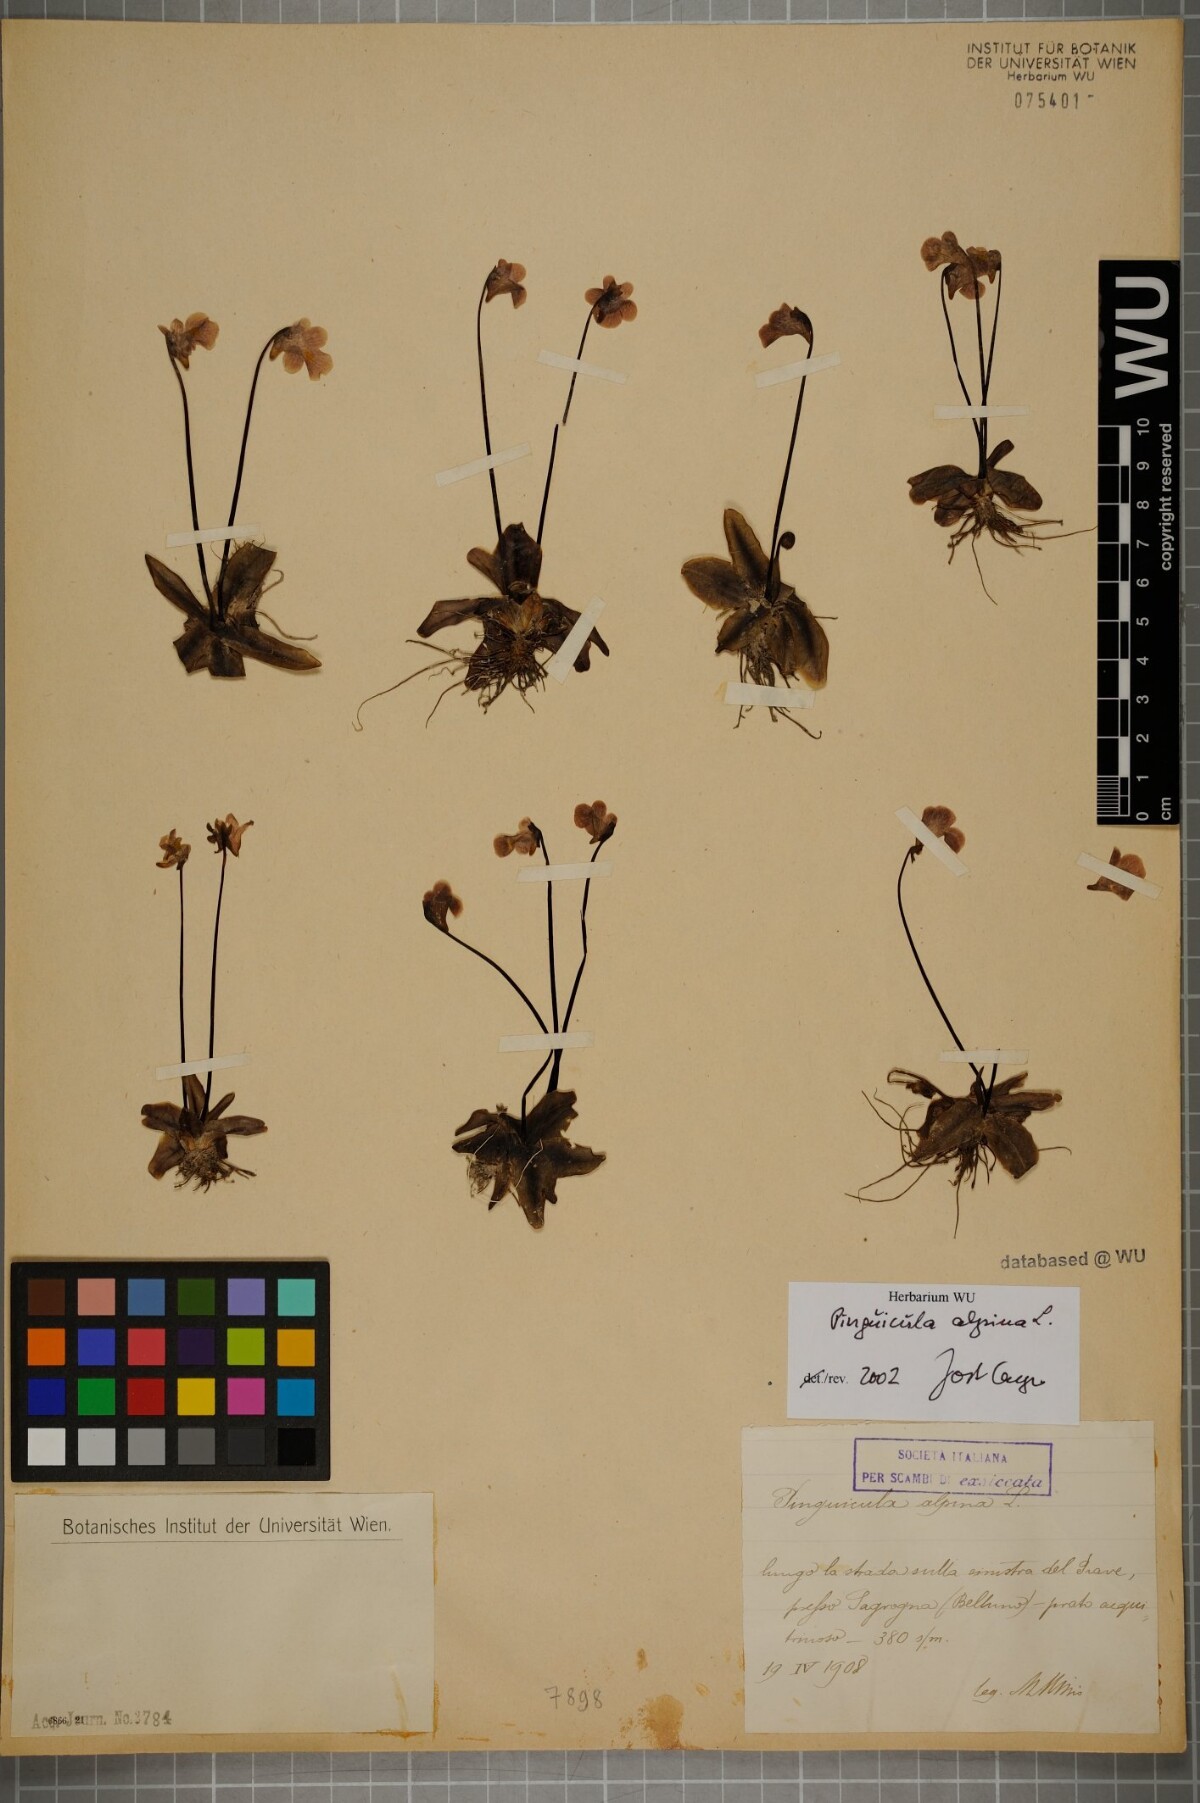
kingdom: Plantae
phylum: Tracheophyta
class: Magnoliopsida
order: Lamiales
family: Lentibulariaceae
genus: Pinguicula
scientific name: Pinguicula alpina
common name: Alpine butterwort
